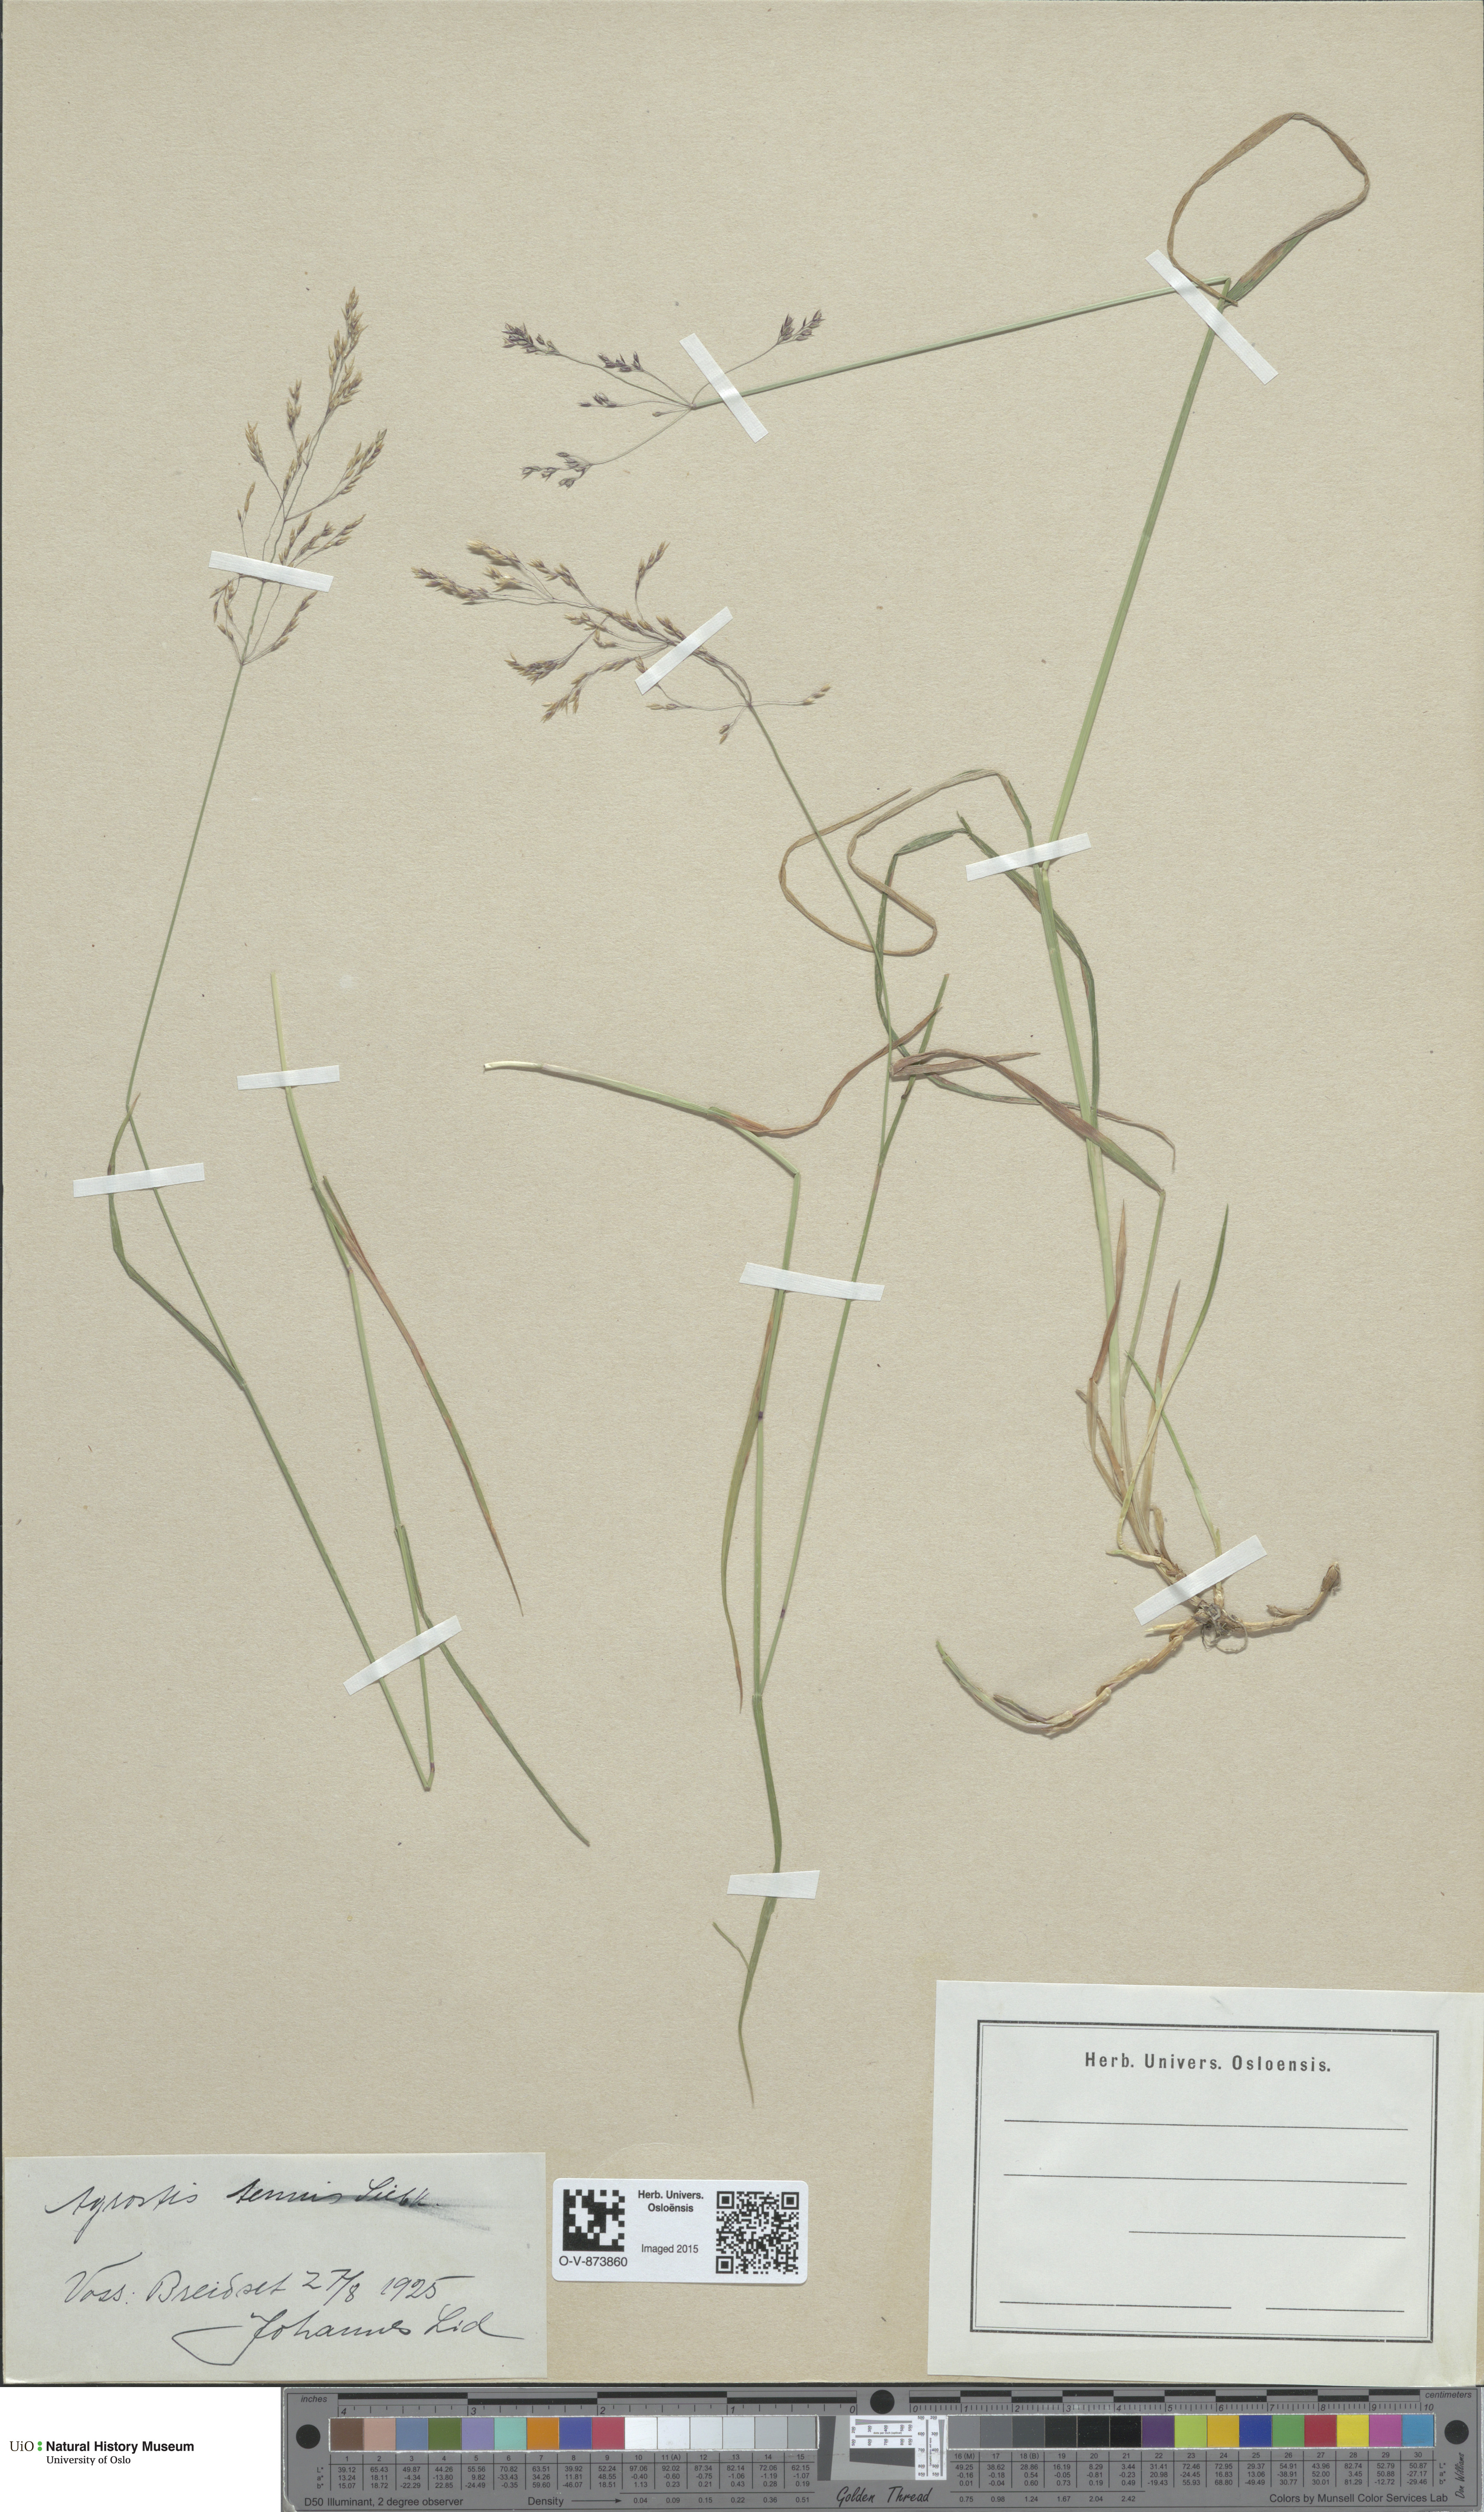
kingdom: Plantae
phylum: Tracheophyta
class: Liliopsida
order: Poales
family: Poaceae
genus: Agrostis
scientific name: Agrostis capillaris
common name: Colonial bentgrass
